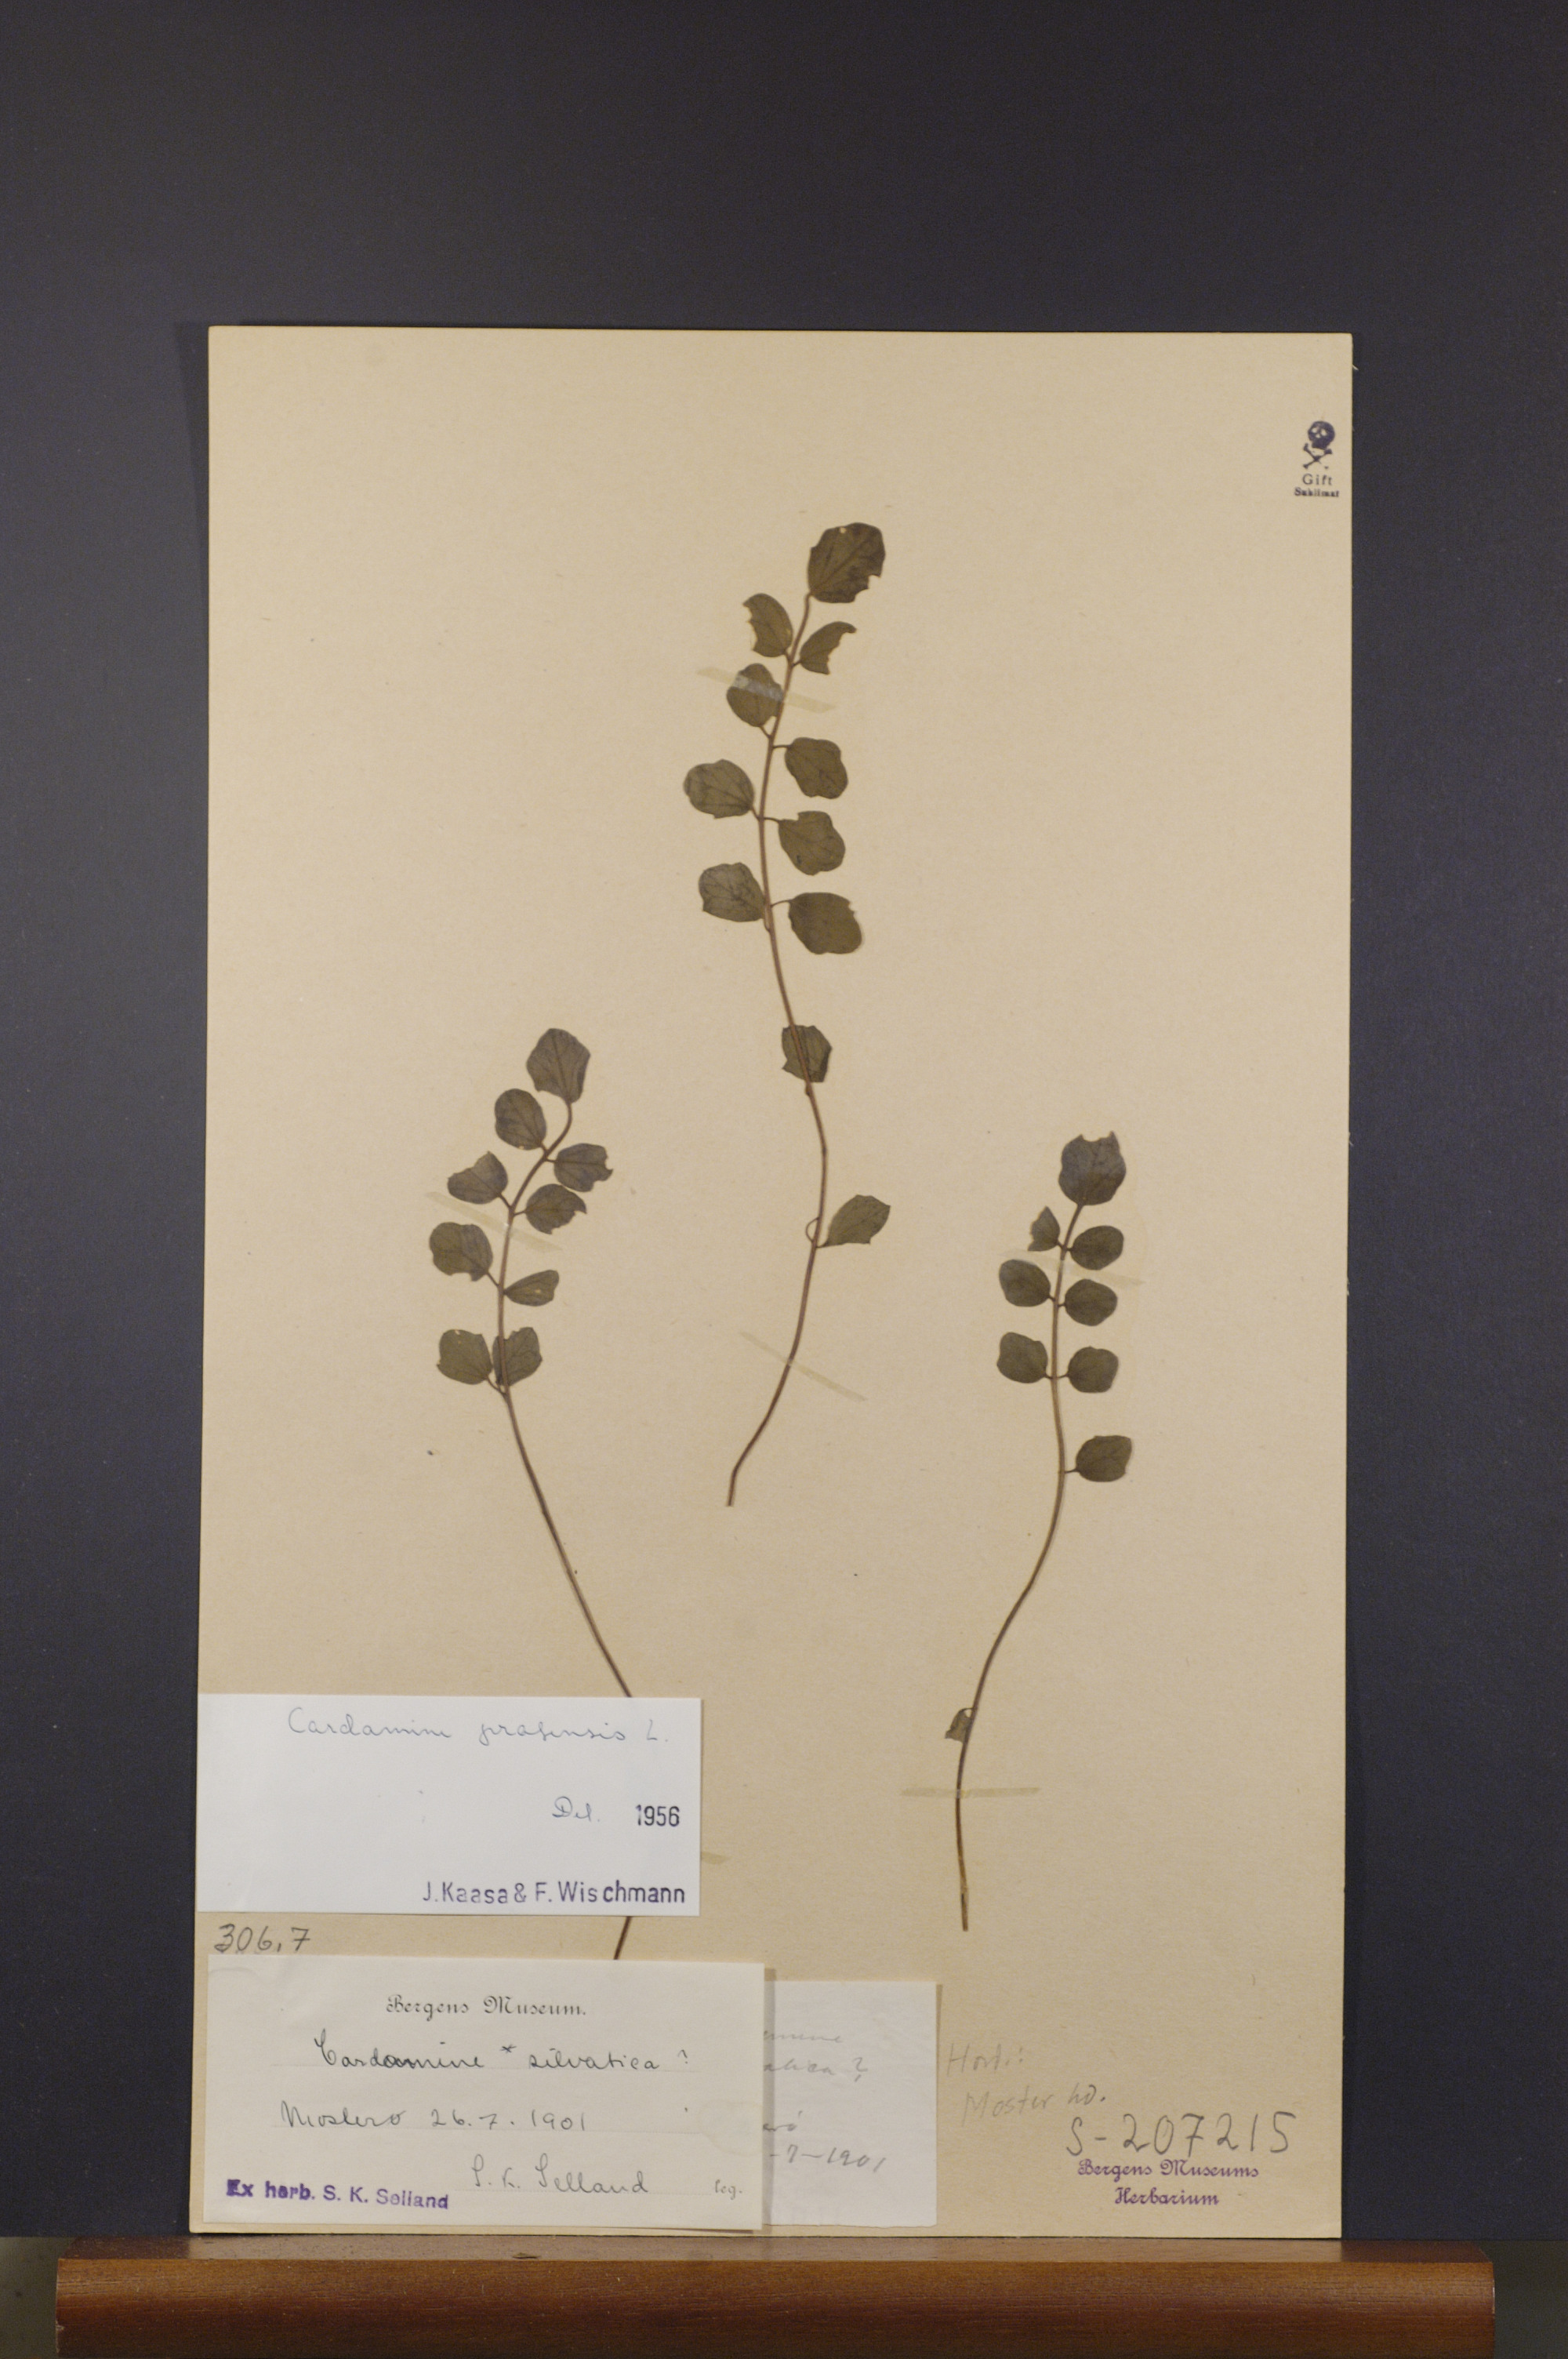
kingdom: Plantae
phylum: Tracheophyta
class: Magnoliopsida
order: Brassicales
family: Brassicaceae
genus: Cardamine
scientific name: Cardamine pratensis
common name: Cuckoo flower
